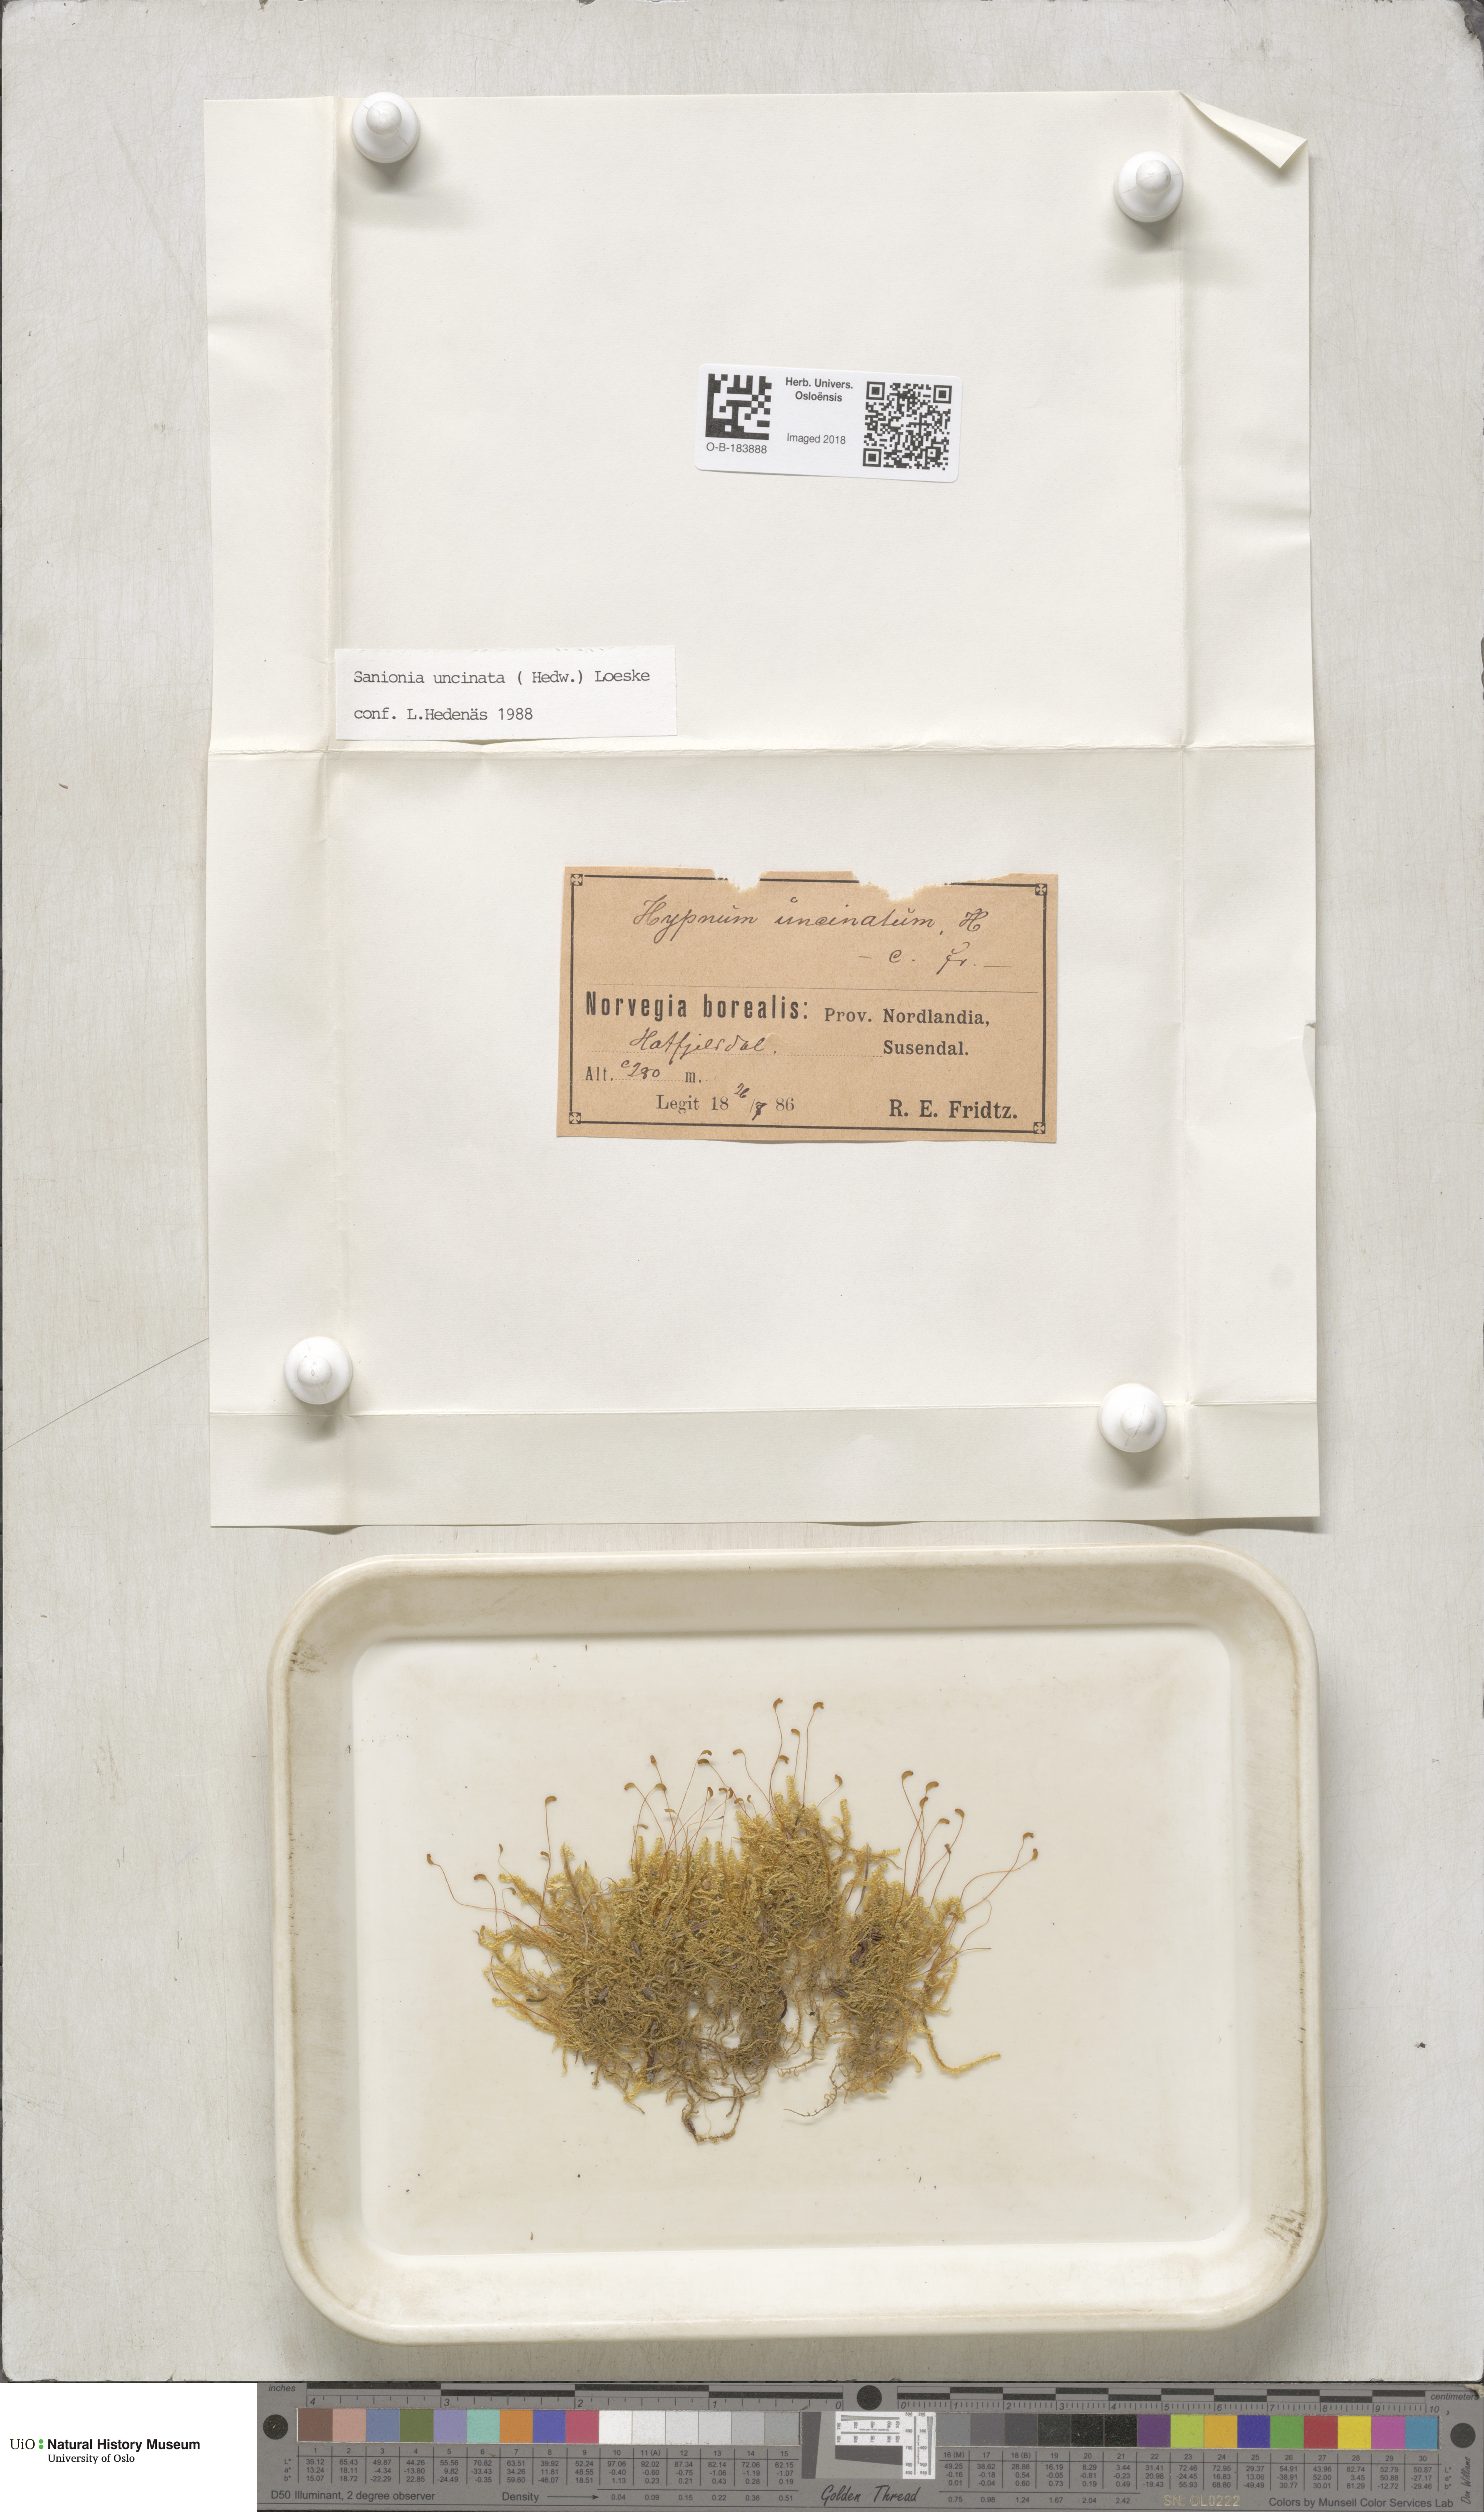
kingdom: Plantae
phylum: Bryophyta
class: Bryopsida
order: Hypnales
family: Scorpidiaceae
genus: Sanionia
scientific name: Sanionia uncinata
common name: Sickle moss
